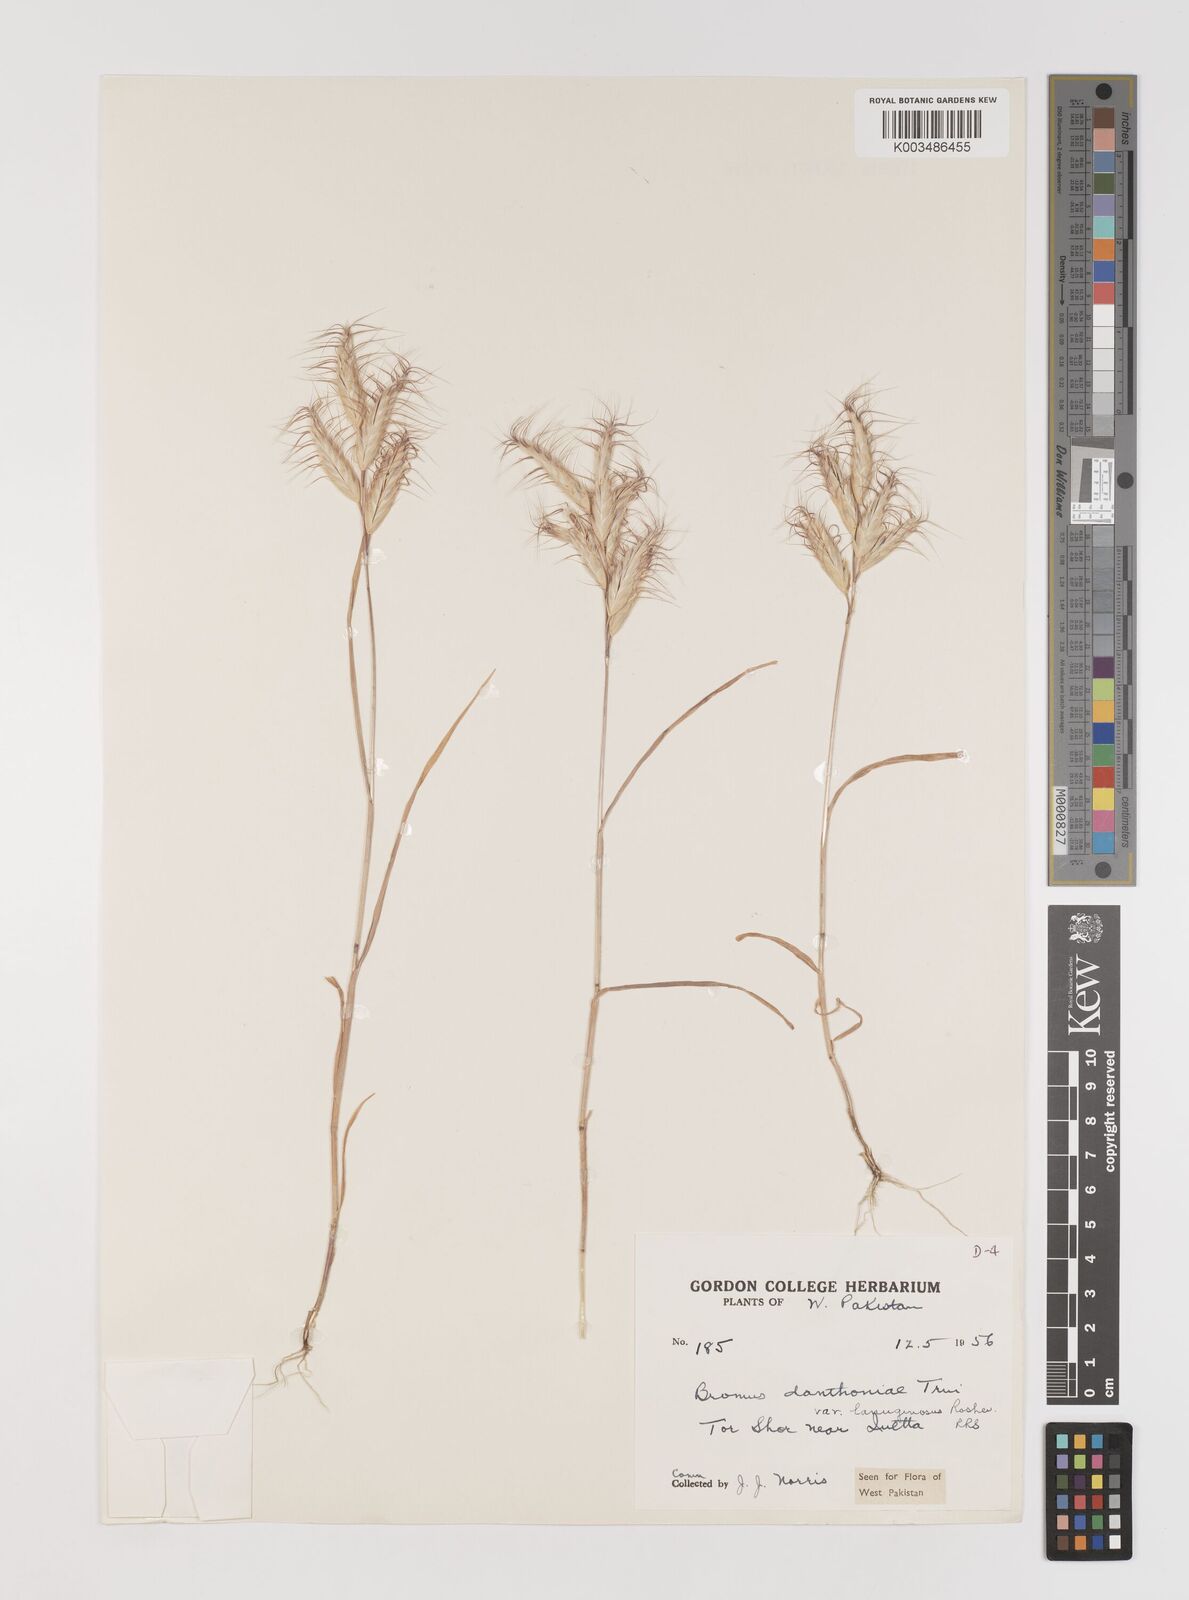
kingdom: Plantae
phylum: Tracheophyta
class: Liliopsida
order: Poales
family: Poaceae
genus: Bromus
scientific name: Bromus danthoniae
